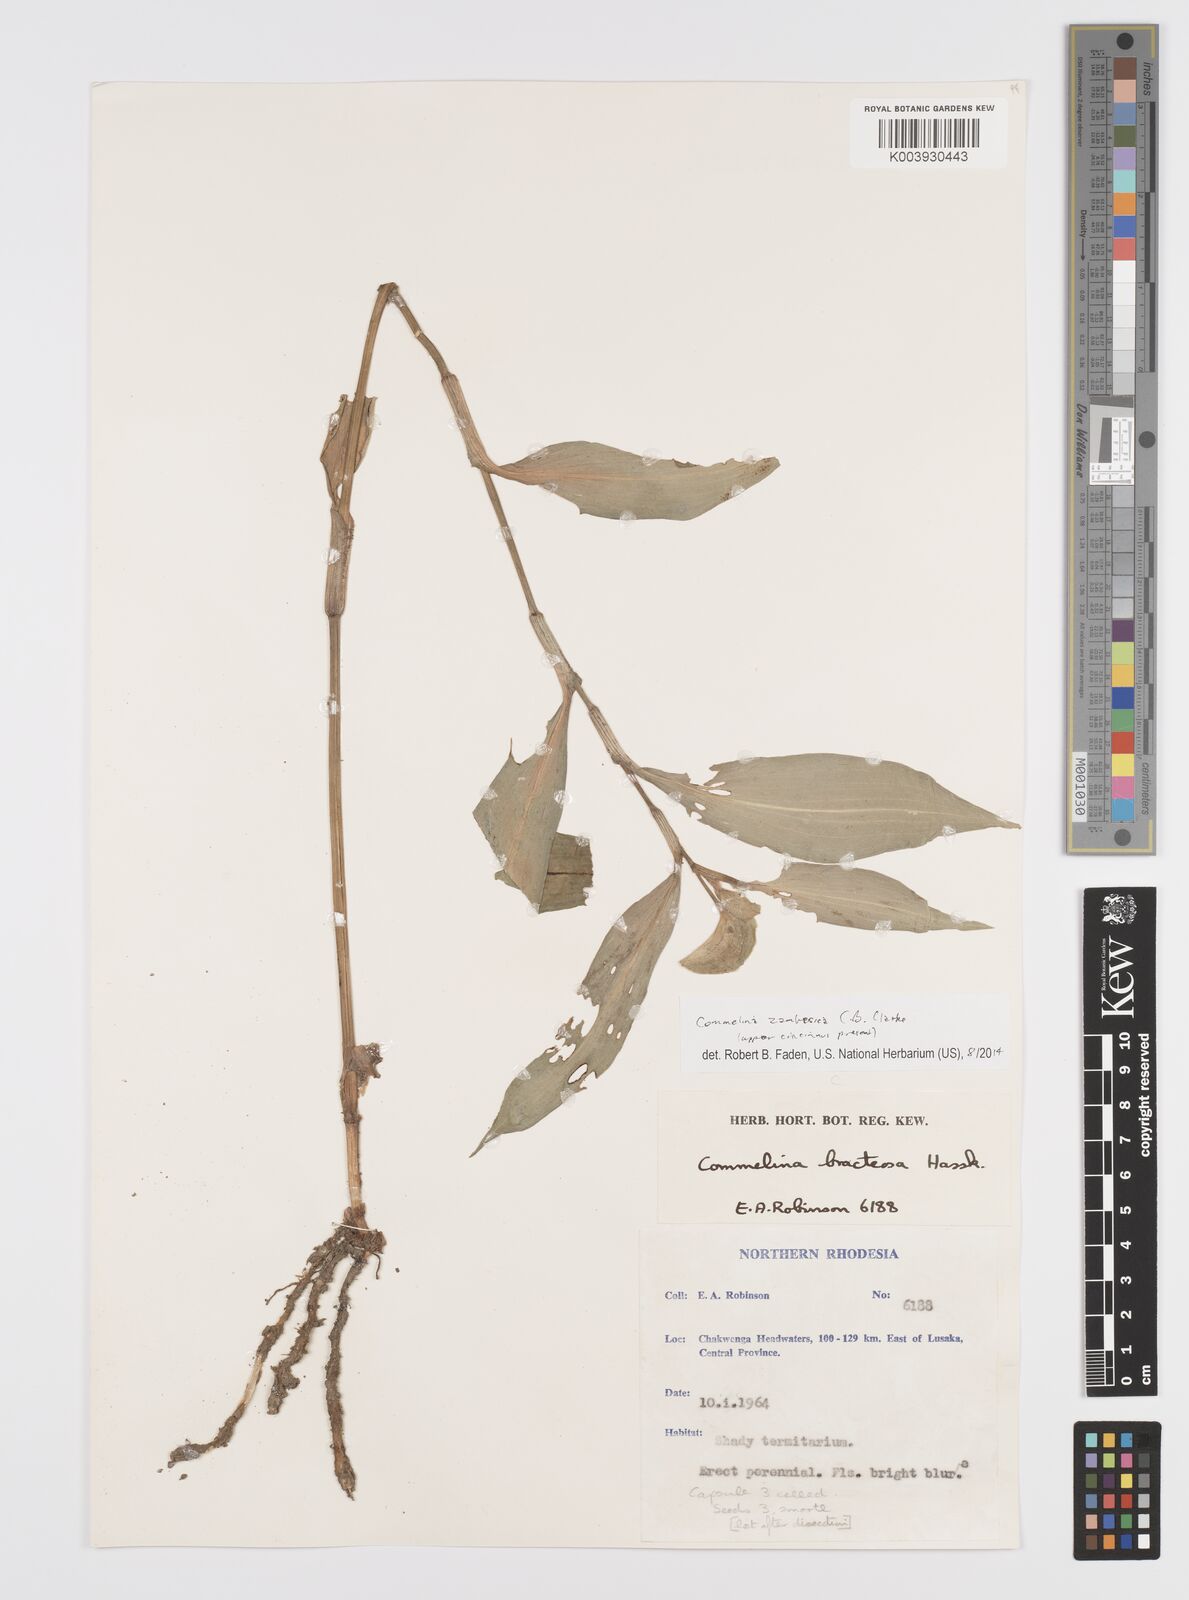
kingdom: Plantae
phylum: Tracheophyta
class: Liliopsida
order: Commelinales
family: Commelinaceae
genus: Commelina
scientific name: Commelina zambesica
